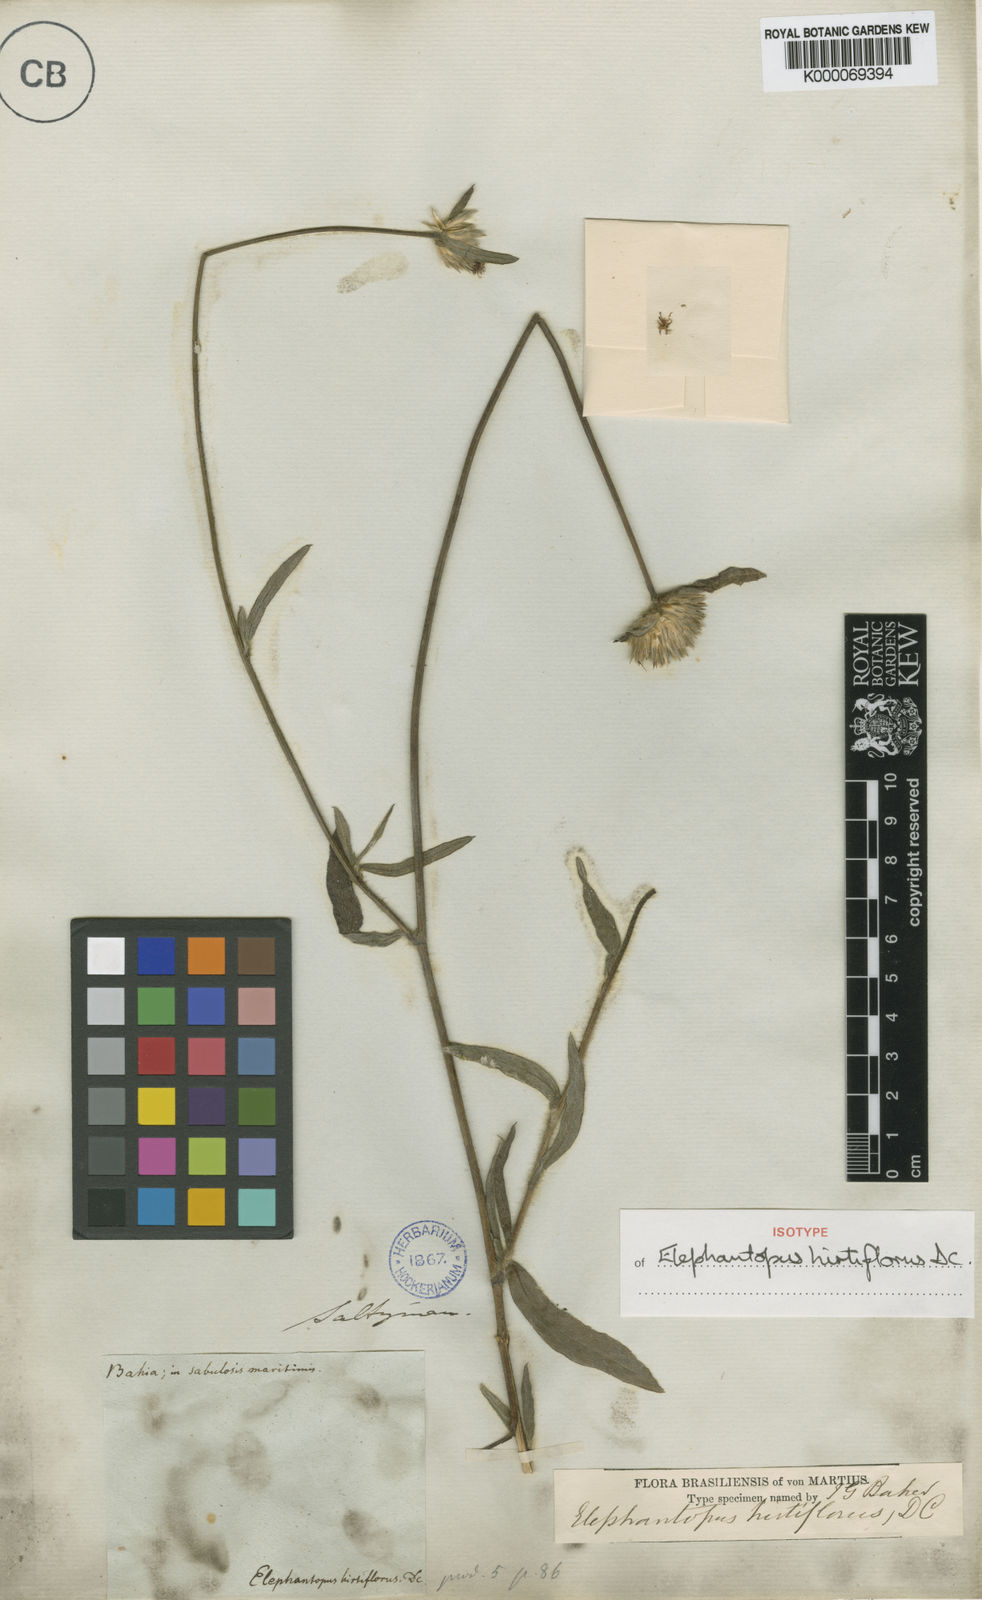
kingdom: Plantae
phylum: Tracheophyta
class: Magnoliopsida
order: Asterales
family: Asteraceae
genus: Elephantopus
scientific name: Elephantopus hirtiflorus
